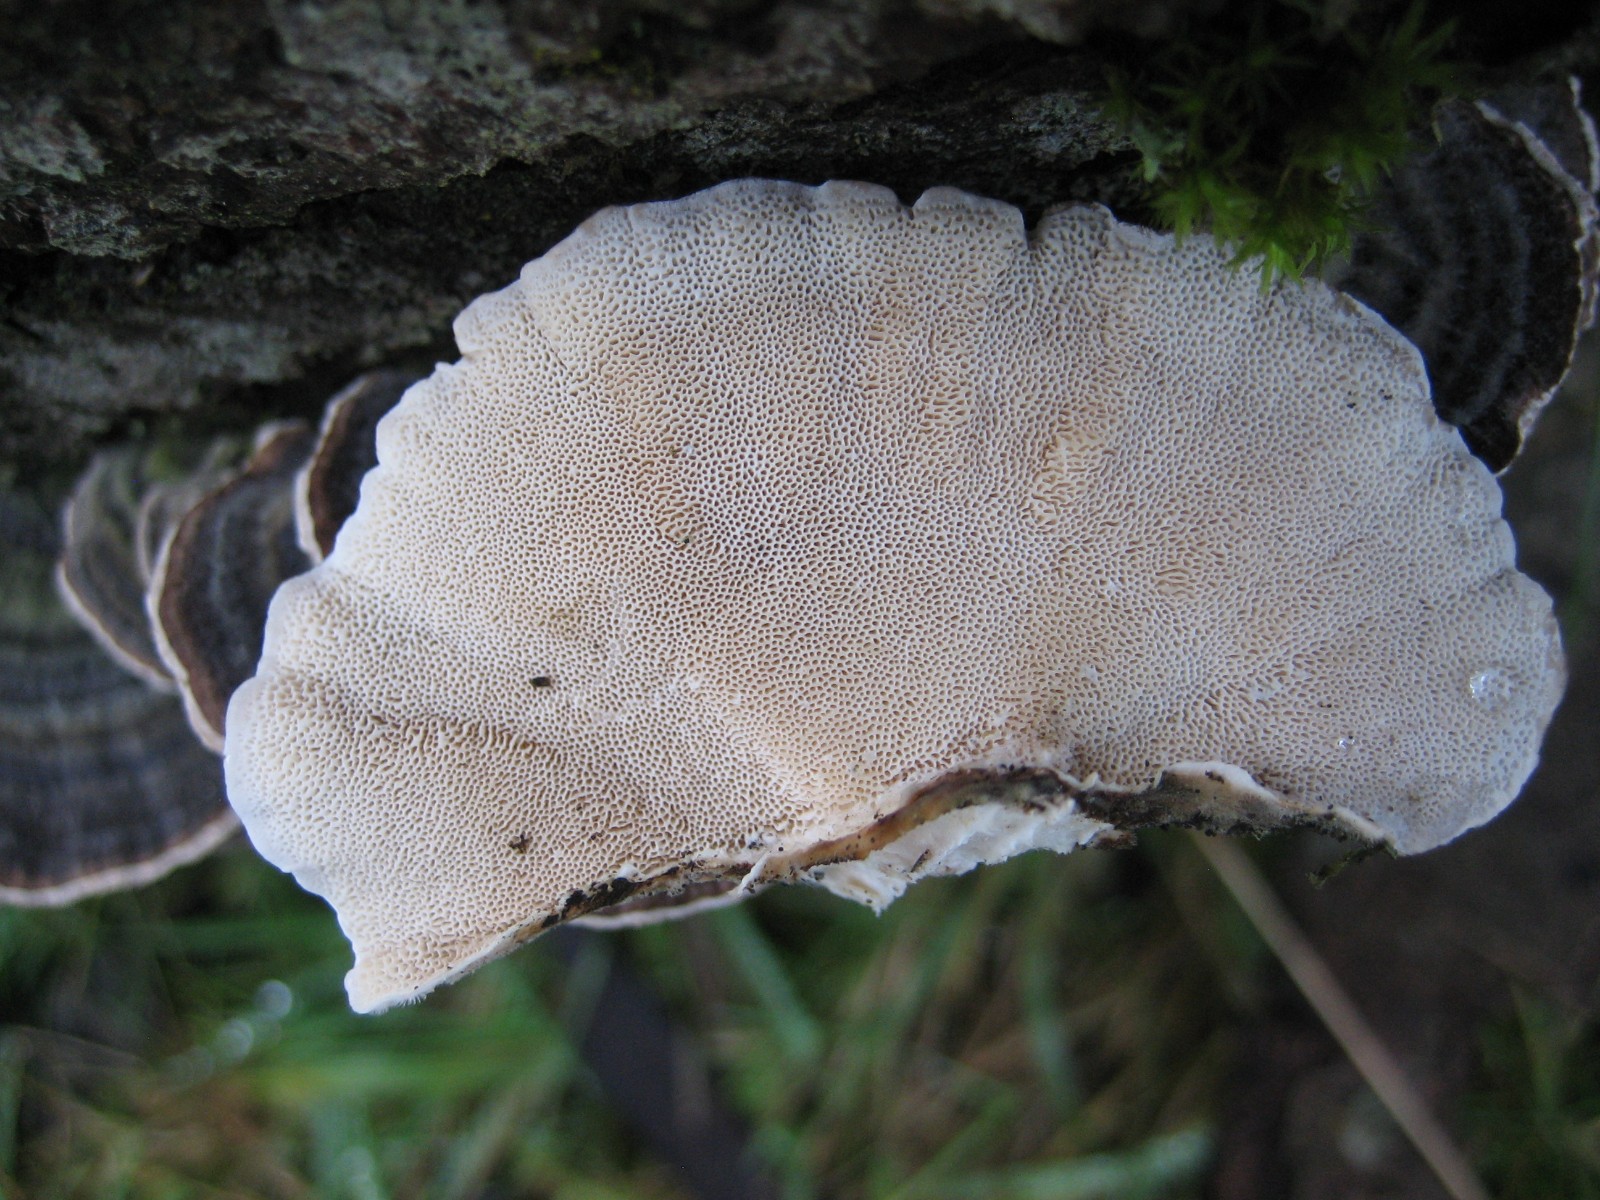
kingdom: Fungi
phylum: Basidiomycota
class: Agaricomycetes
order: Polyporales
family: Polyporaceae
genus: Trametes
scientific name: Trametes versicolor
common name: broget læderporesvamp
